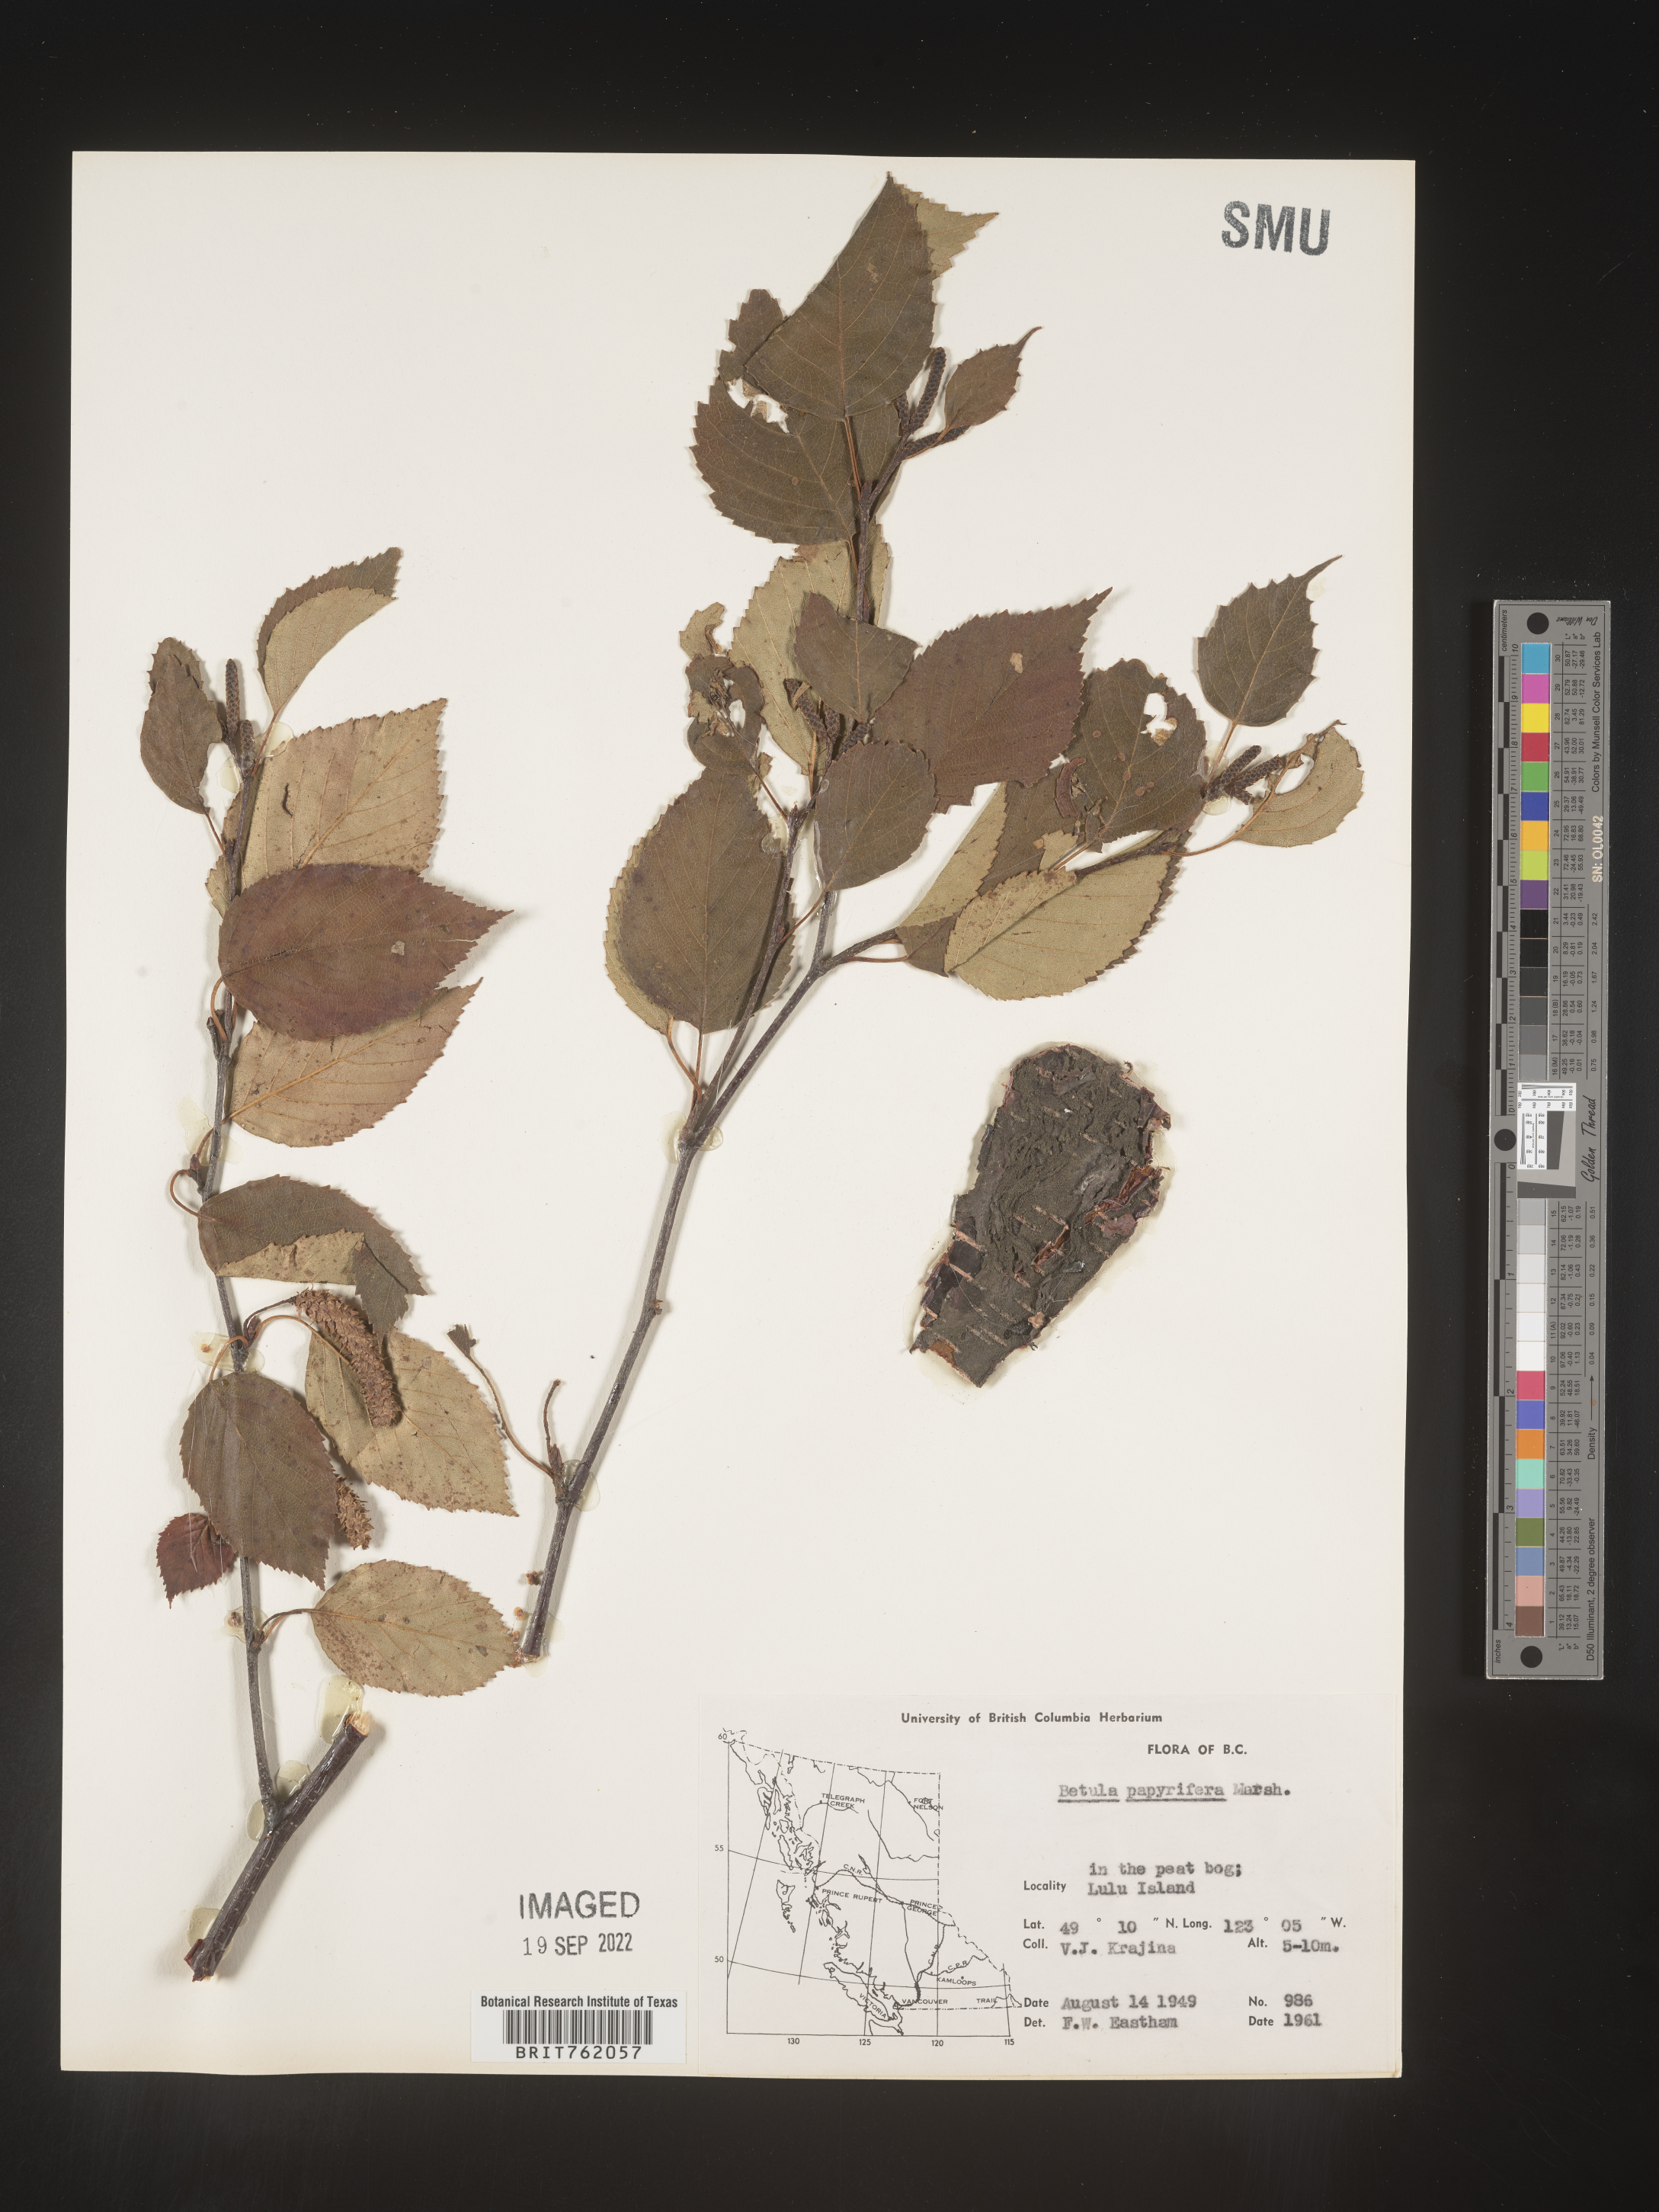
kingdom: Plantae
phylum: Tracheophyta
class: Magnoliopsida
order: Fagales
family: Betulaceae
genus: Betula
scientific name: Betula papyrifera
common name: Paper birch
